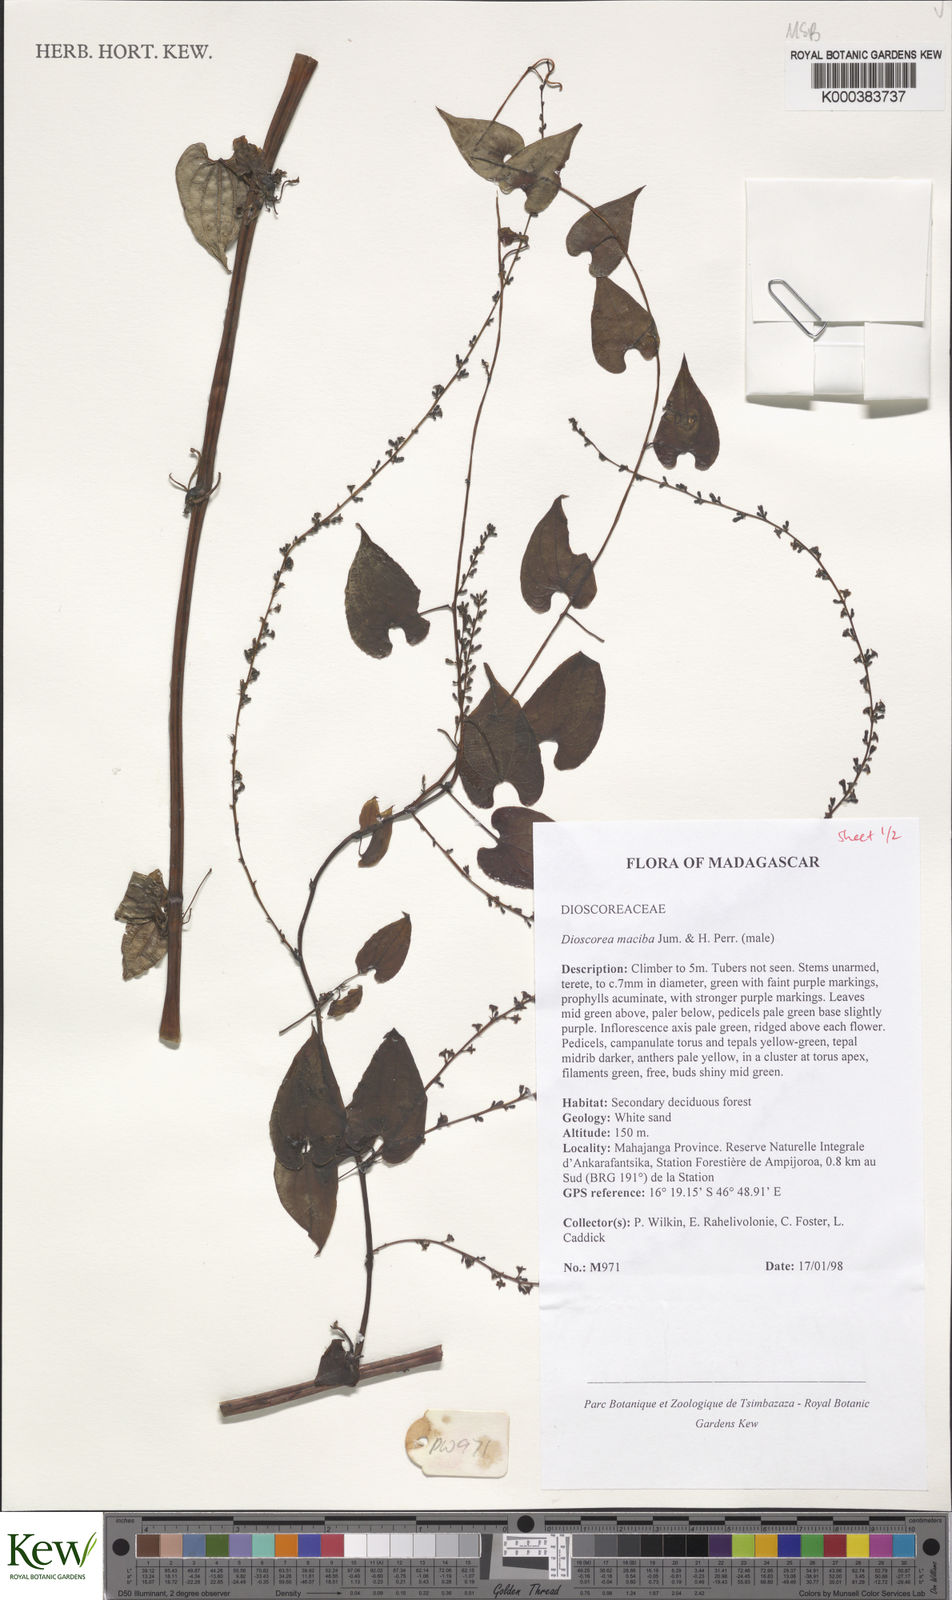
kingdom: Plantae
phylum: Tracheophyta
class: Liliopsida
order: Dioscoreales
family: Dioscoreaceae
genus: Dioscorea
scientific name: Dioscorea
